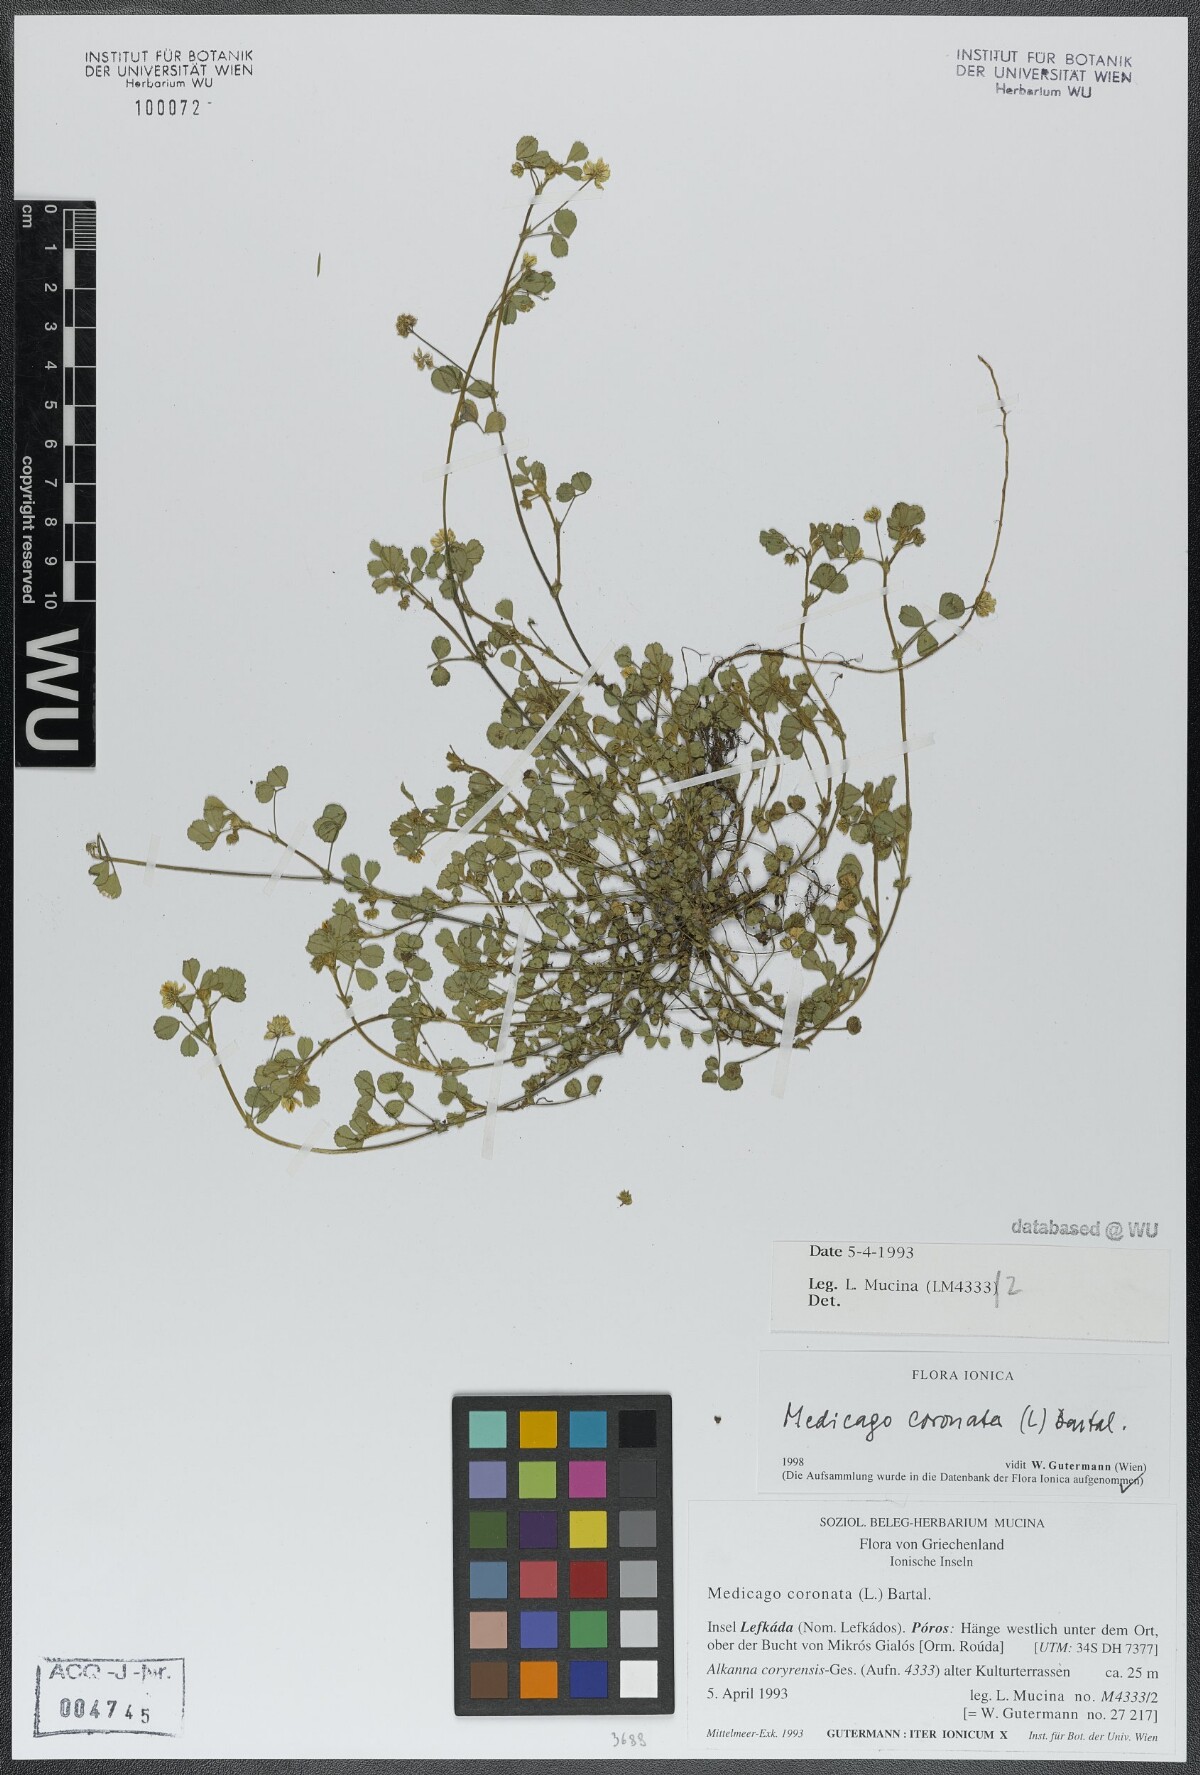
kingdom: Plantae
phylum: Tracheophyta
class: Magnoliopsida
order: Fabales
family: Fabaceae
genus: Medicago
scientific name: Medicago coronata
